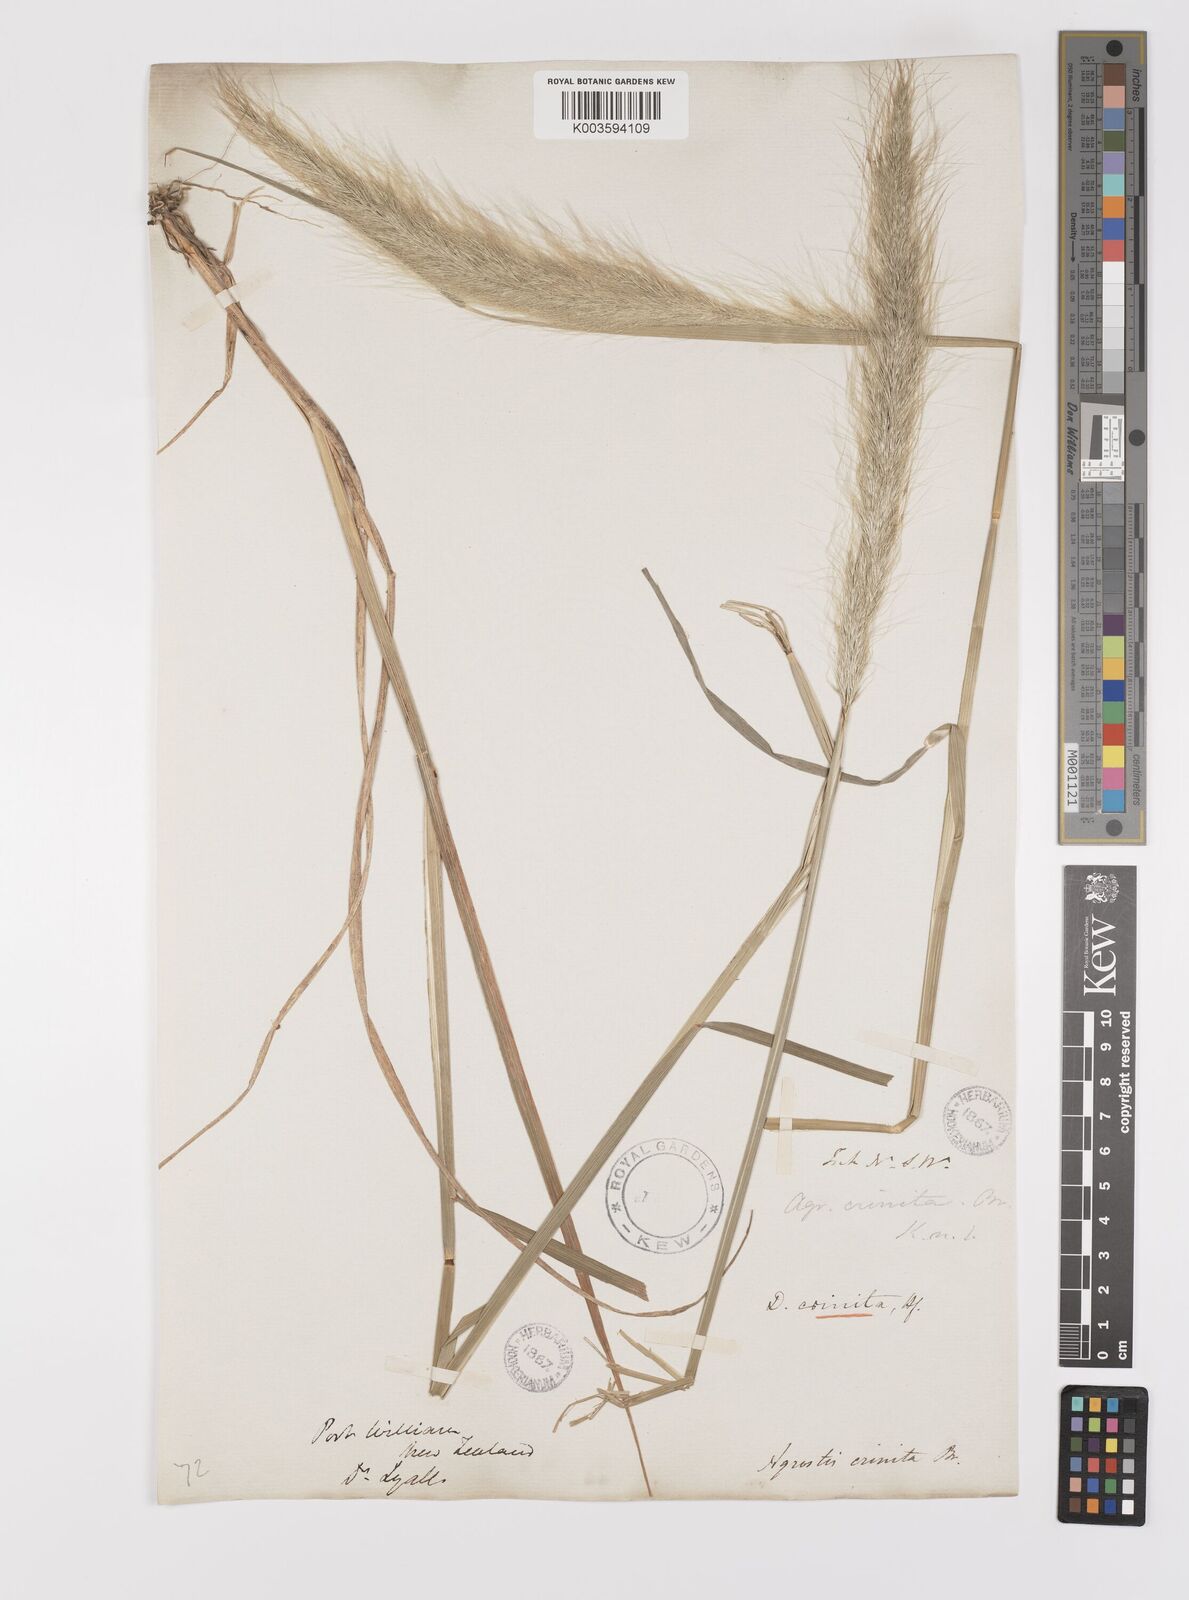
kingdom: Plantae
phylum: Tracheophyta
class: Liliopsida
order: Poales
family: Poaceae
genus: Dichelachne
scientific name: Dichelachne crinita
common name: Clovenfoot plumegrass
